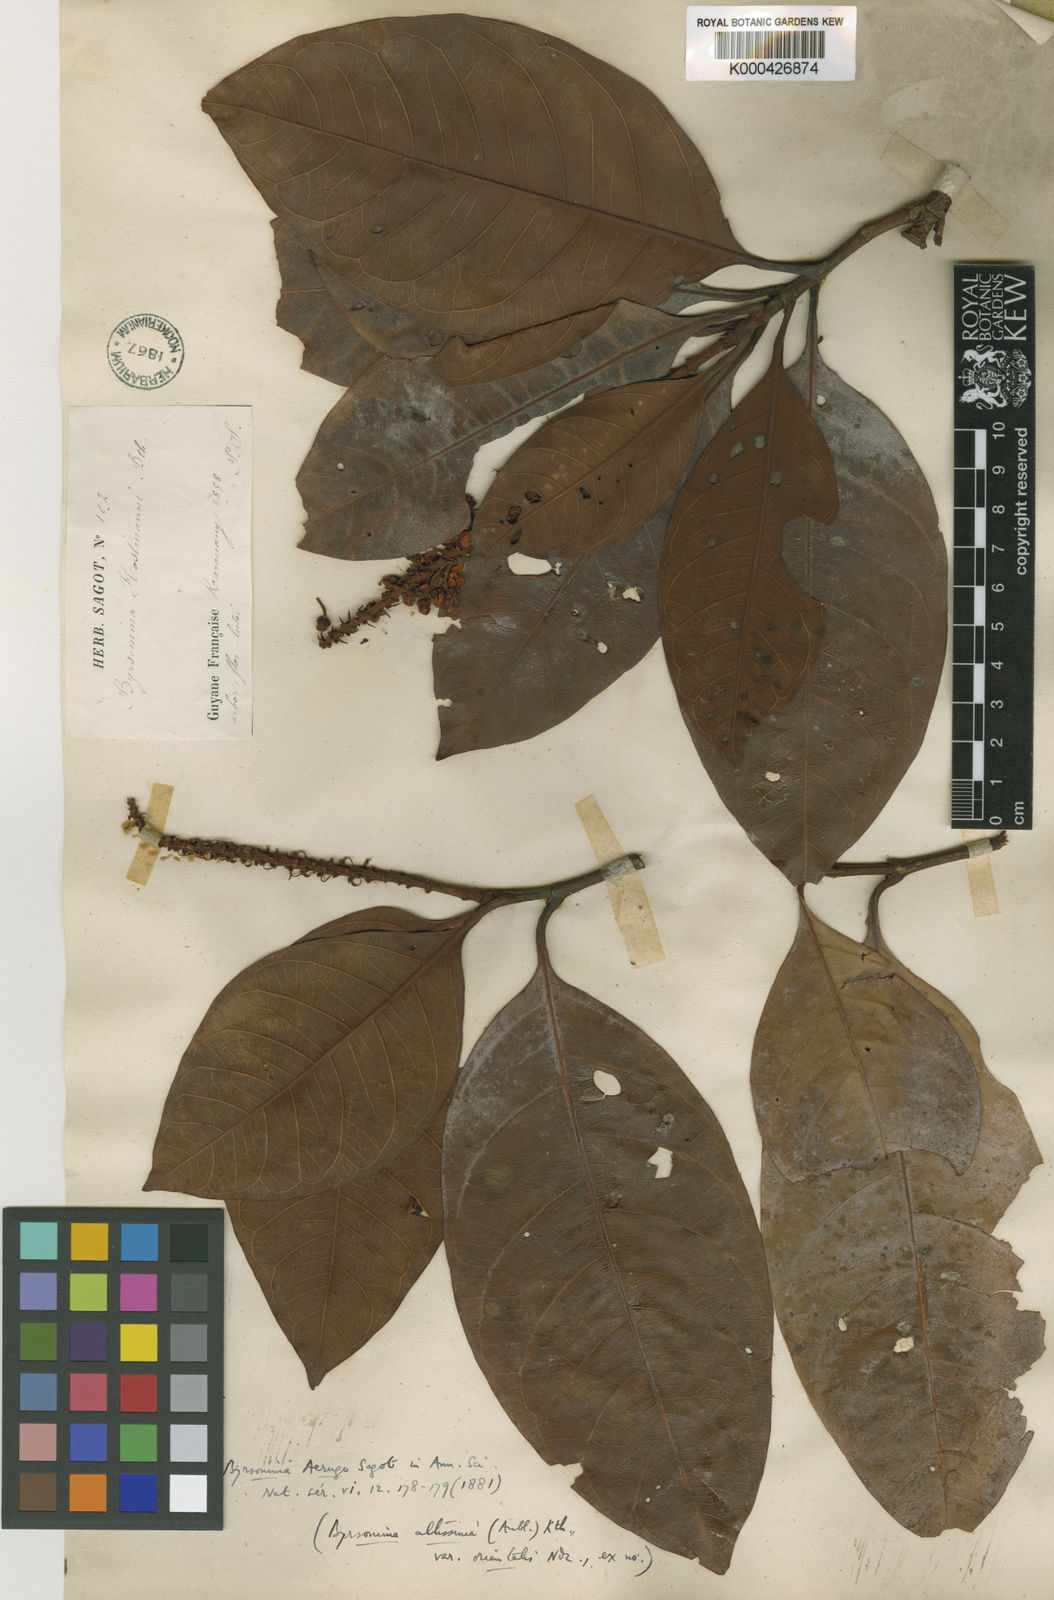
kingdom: Plantae
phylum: Tracheophyta
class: Magnoliopsida
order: Malpighiales
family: Malpighiaceae
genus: Byrsonima
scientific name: Byrsonima aerugo
